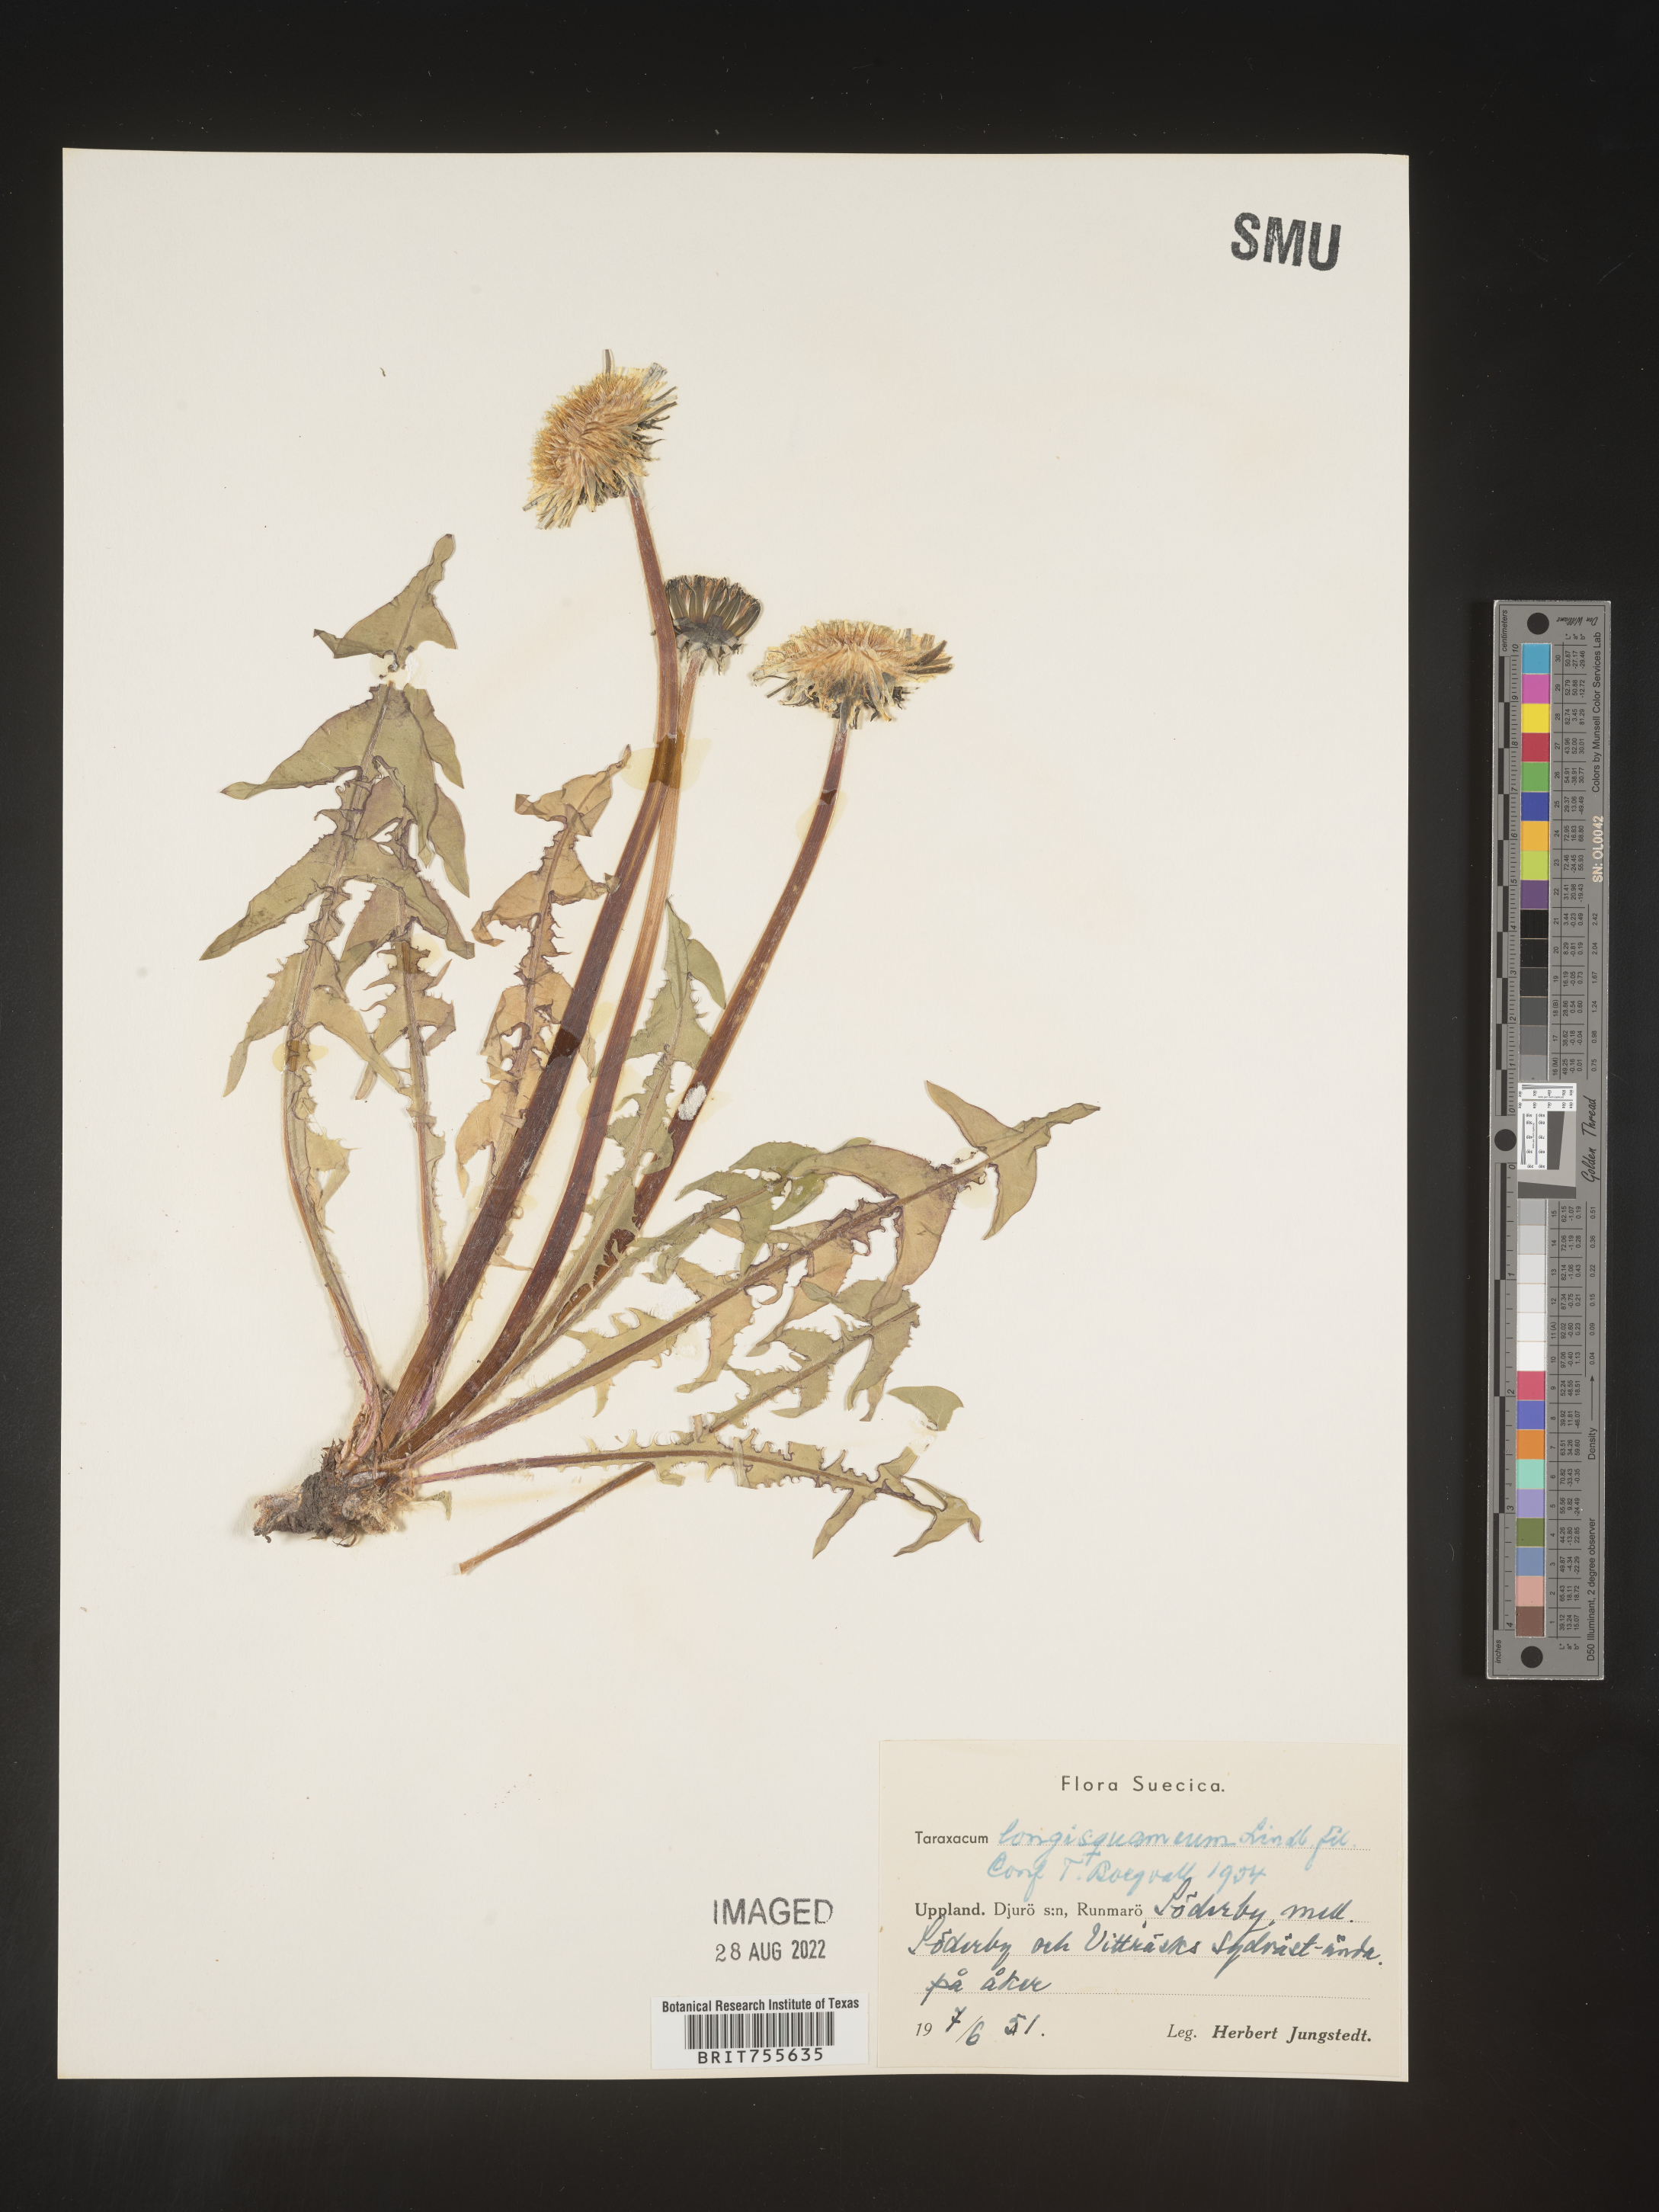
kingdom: Plantae
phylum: Tracheophyta
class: Magnoliopsida
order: Asterales
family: Asteraceae
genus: Taraxacum
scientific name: Taraxacum
